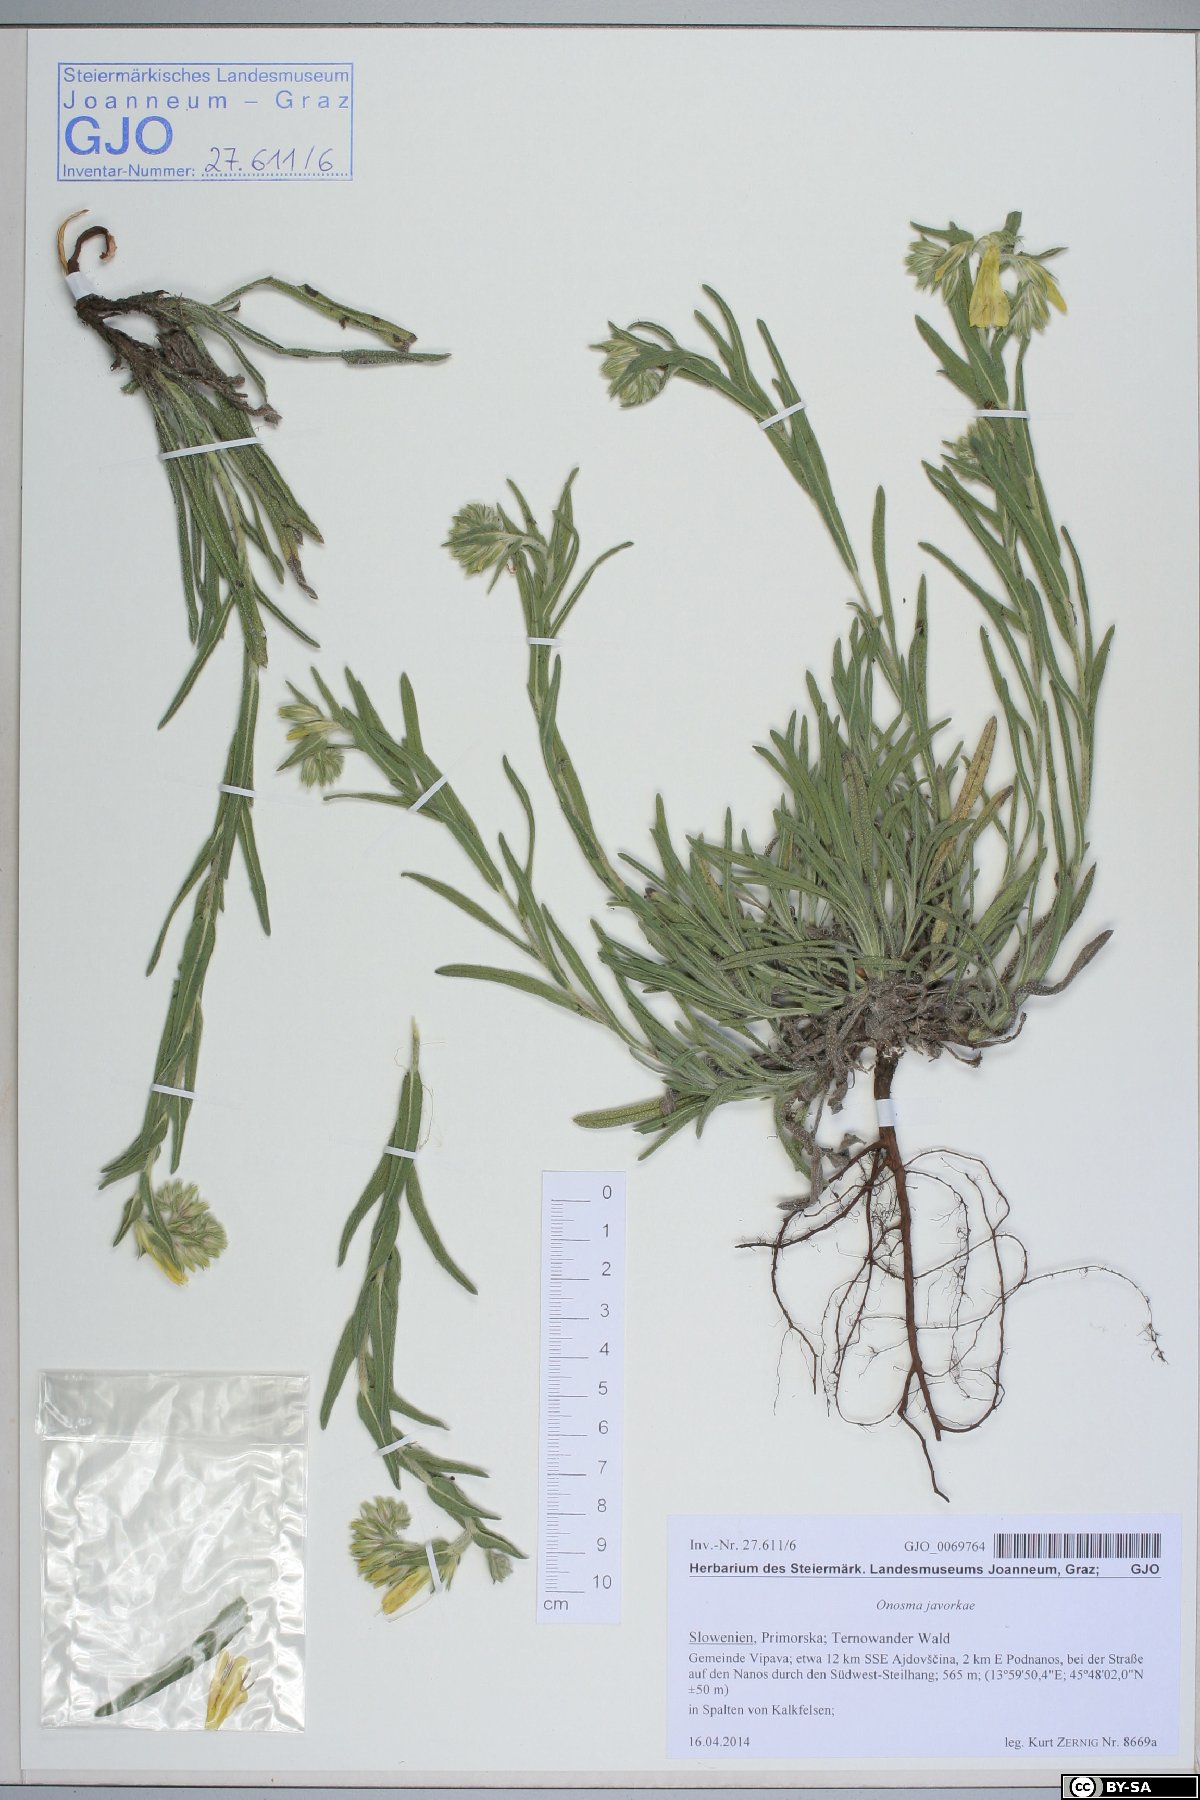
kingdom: Plantae
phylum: Tracheophyta
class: Magnoliopsida
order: Boraginales
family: Boraginaceae
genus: Onosma
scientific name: Onosma javorkae
